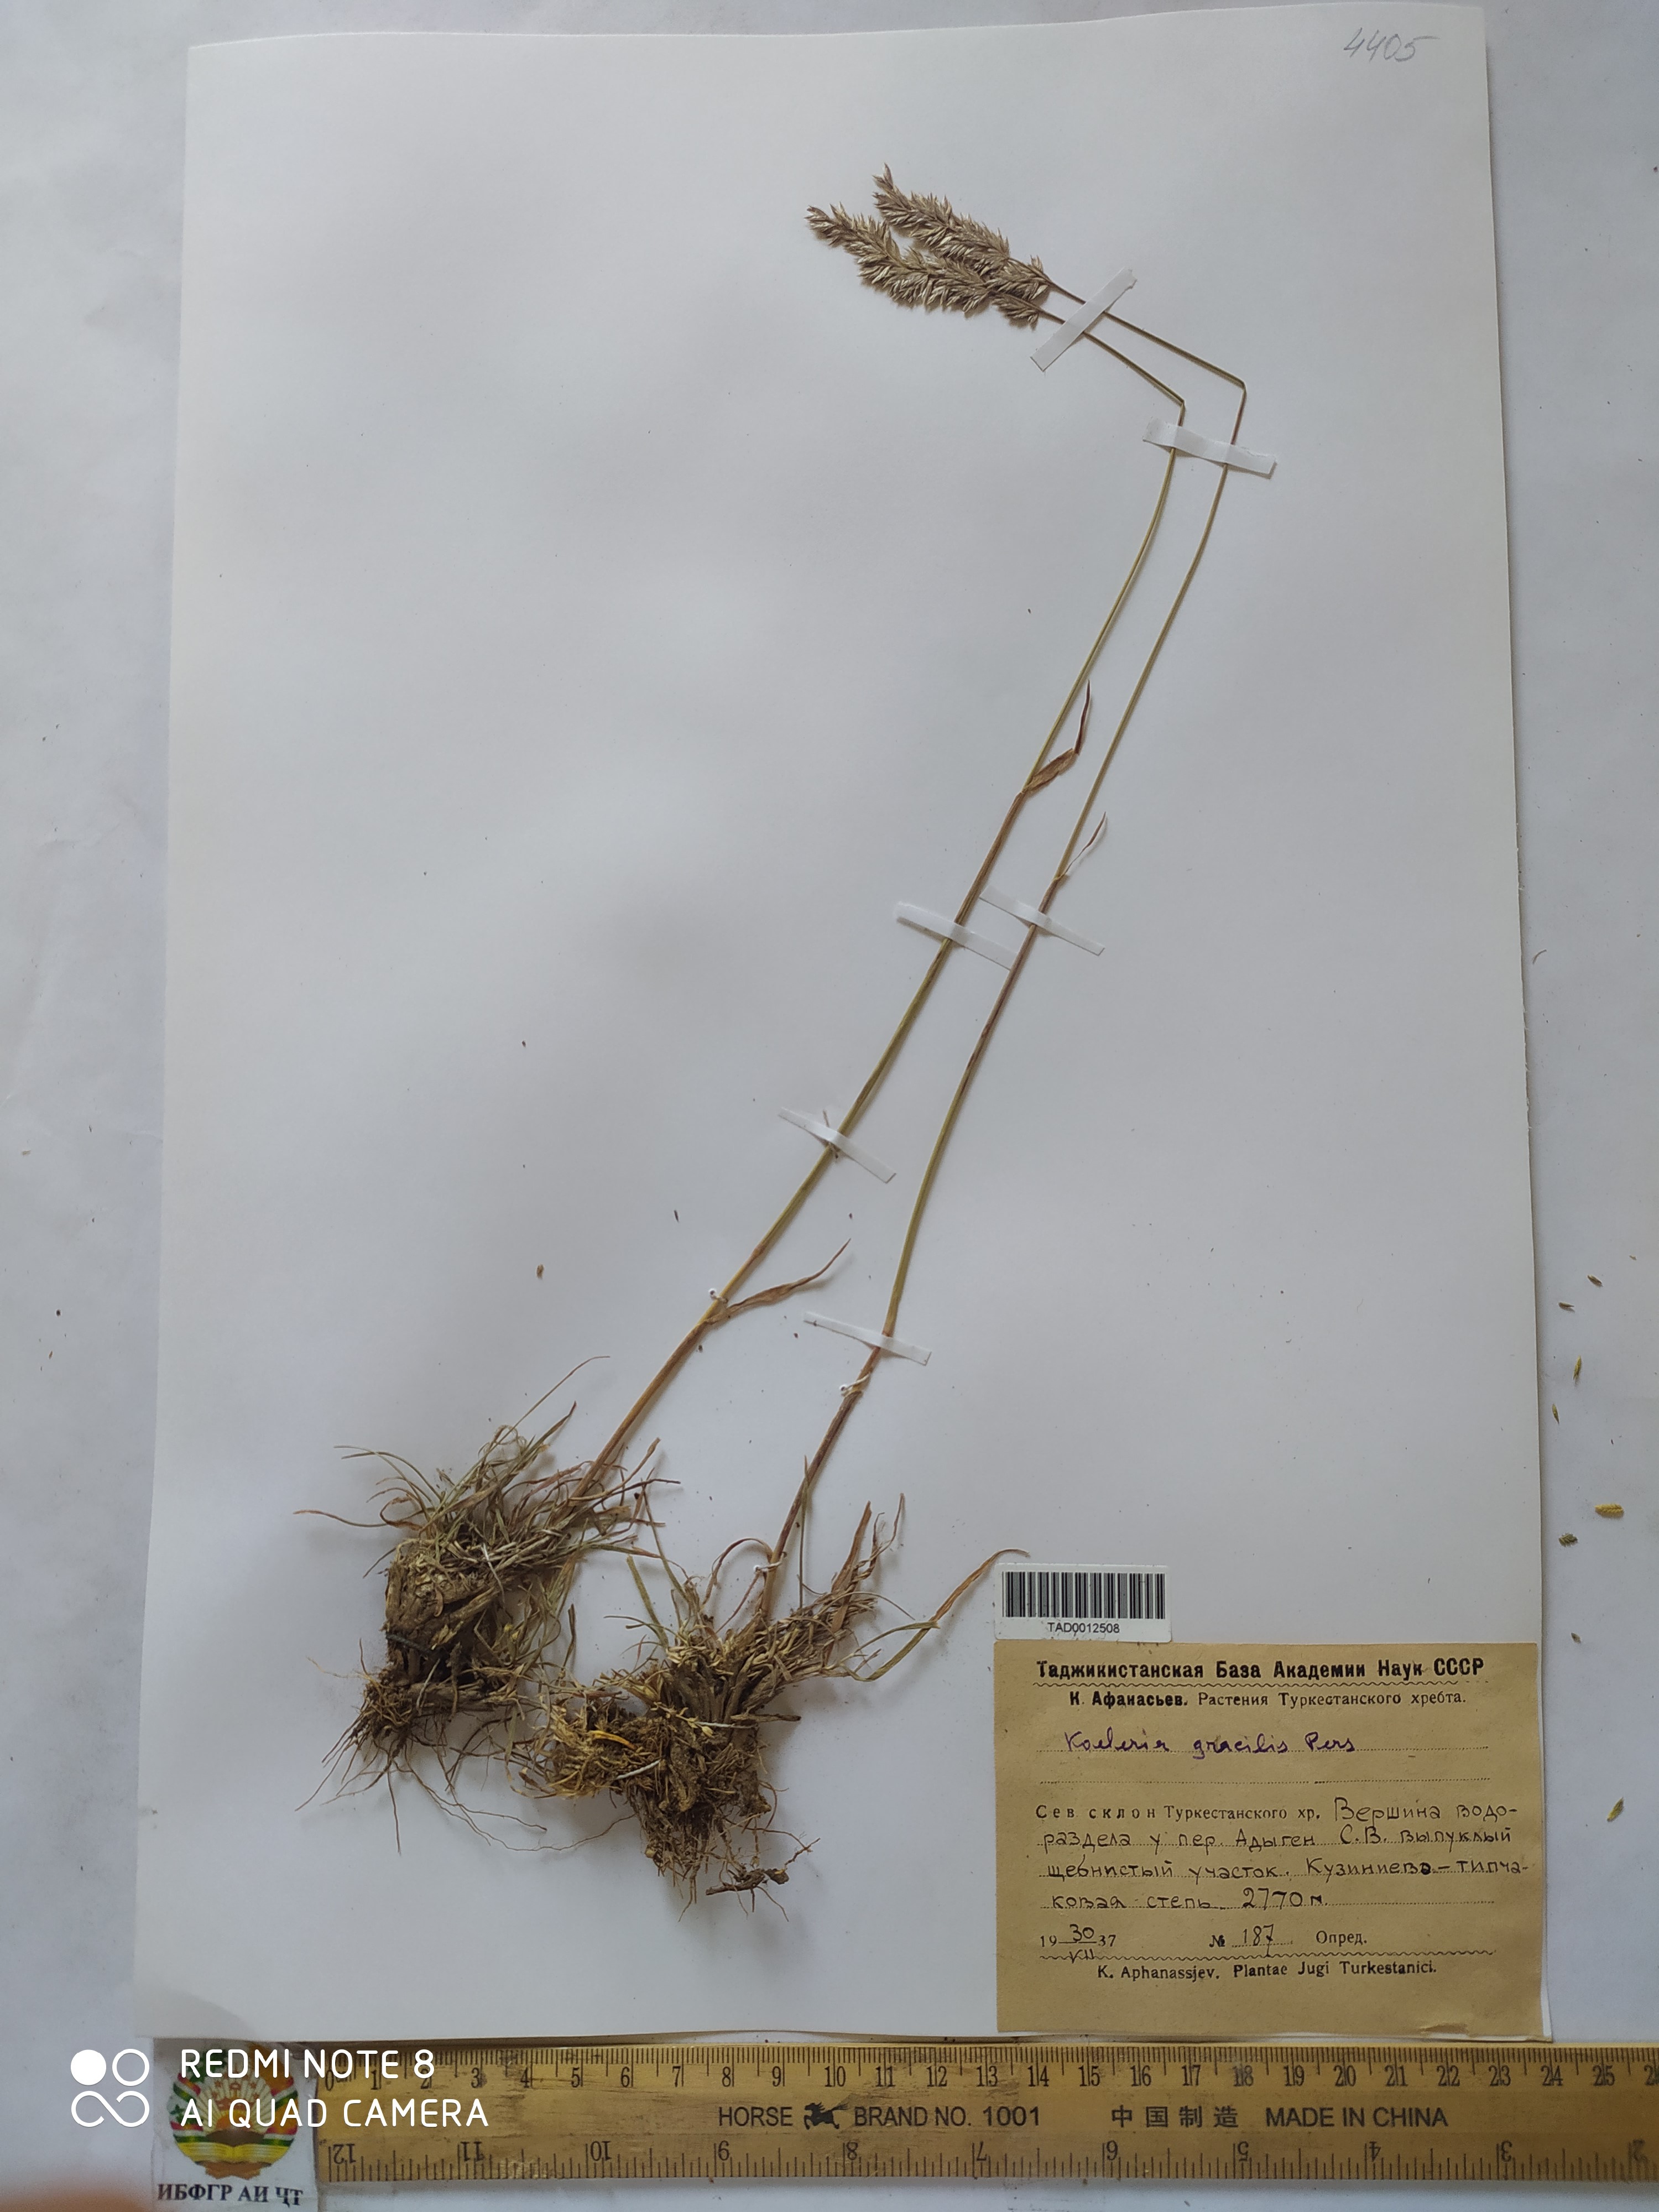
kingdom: Plantae
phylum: Tracheophyta
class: Liliopsida
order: Poales
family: Poaceae
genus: Koeleria
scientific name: Koeleria macrantha
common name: Crested hair-grass
